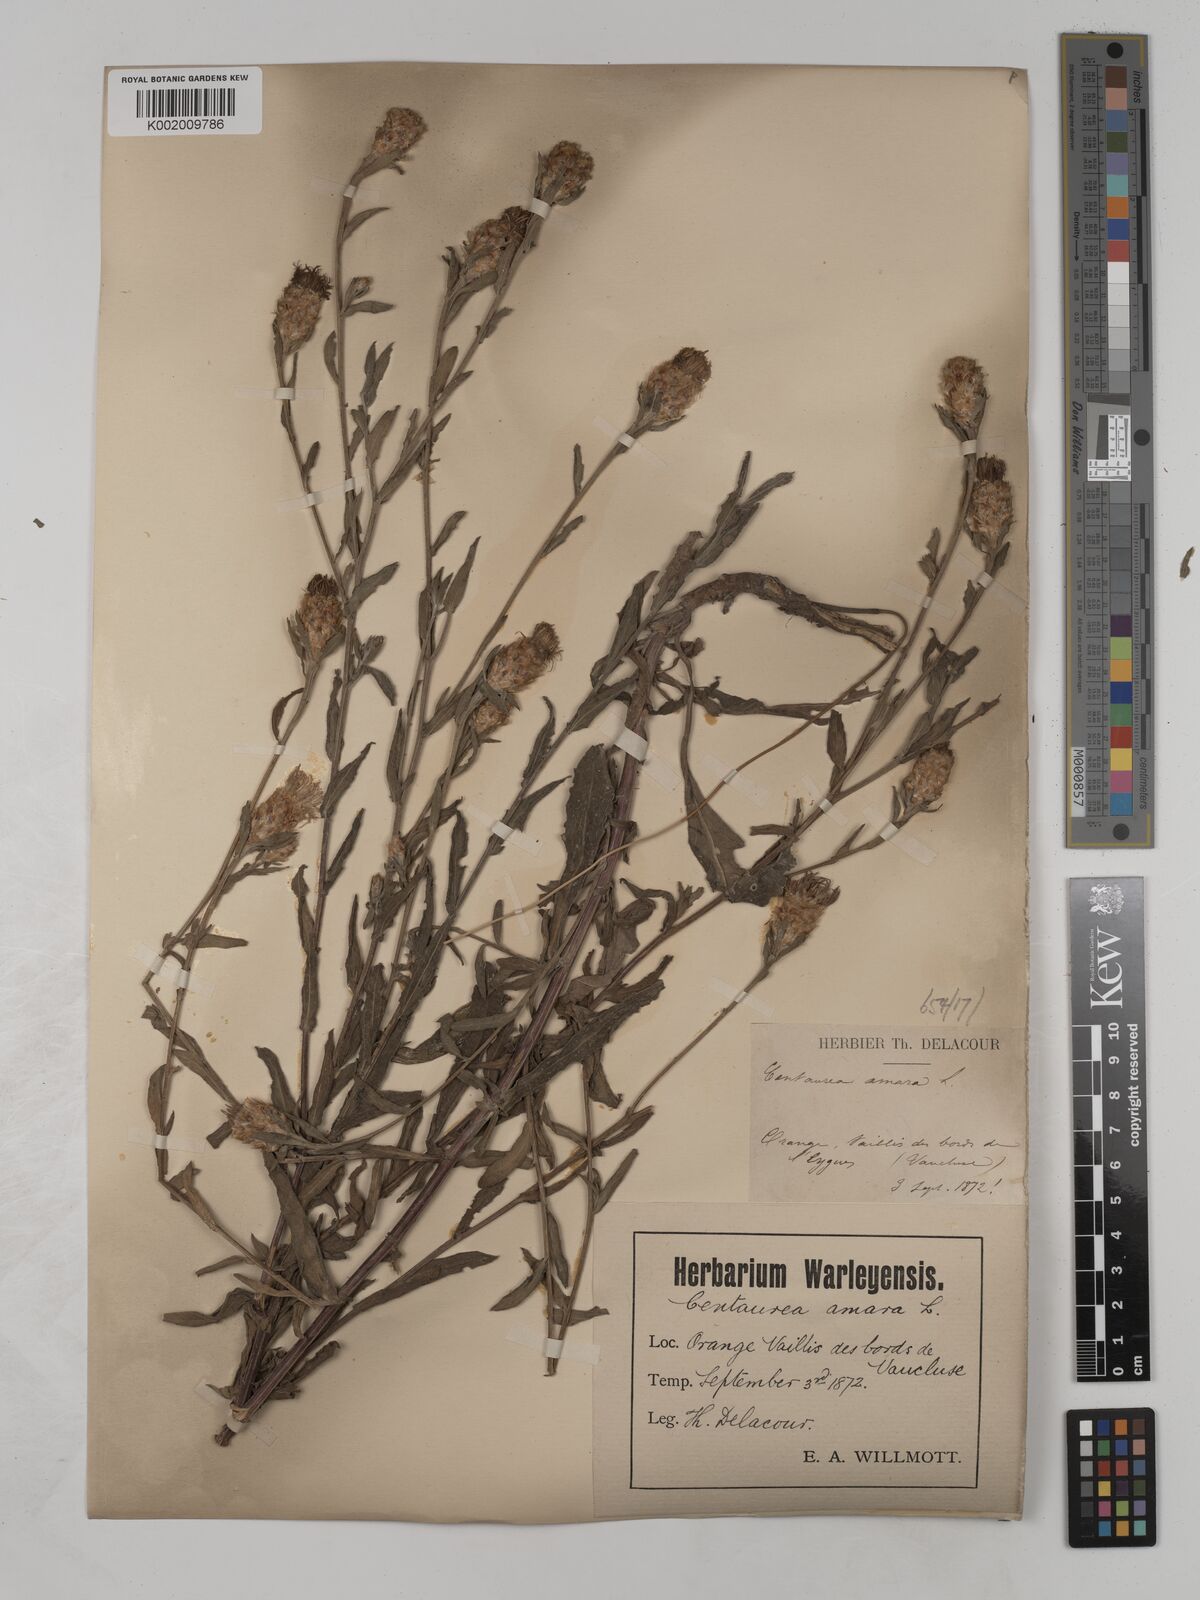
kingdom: Plantae
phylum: Tracheophyta
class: Magnoliopsida
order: Asterales
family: Asteraceae
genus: Centaurea
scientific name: Centaurea timbalii
